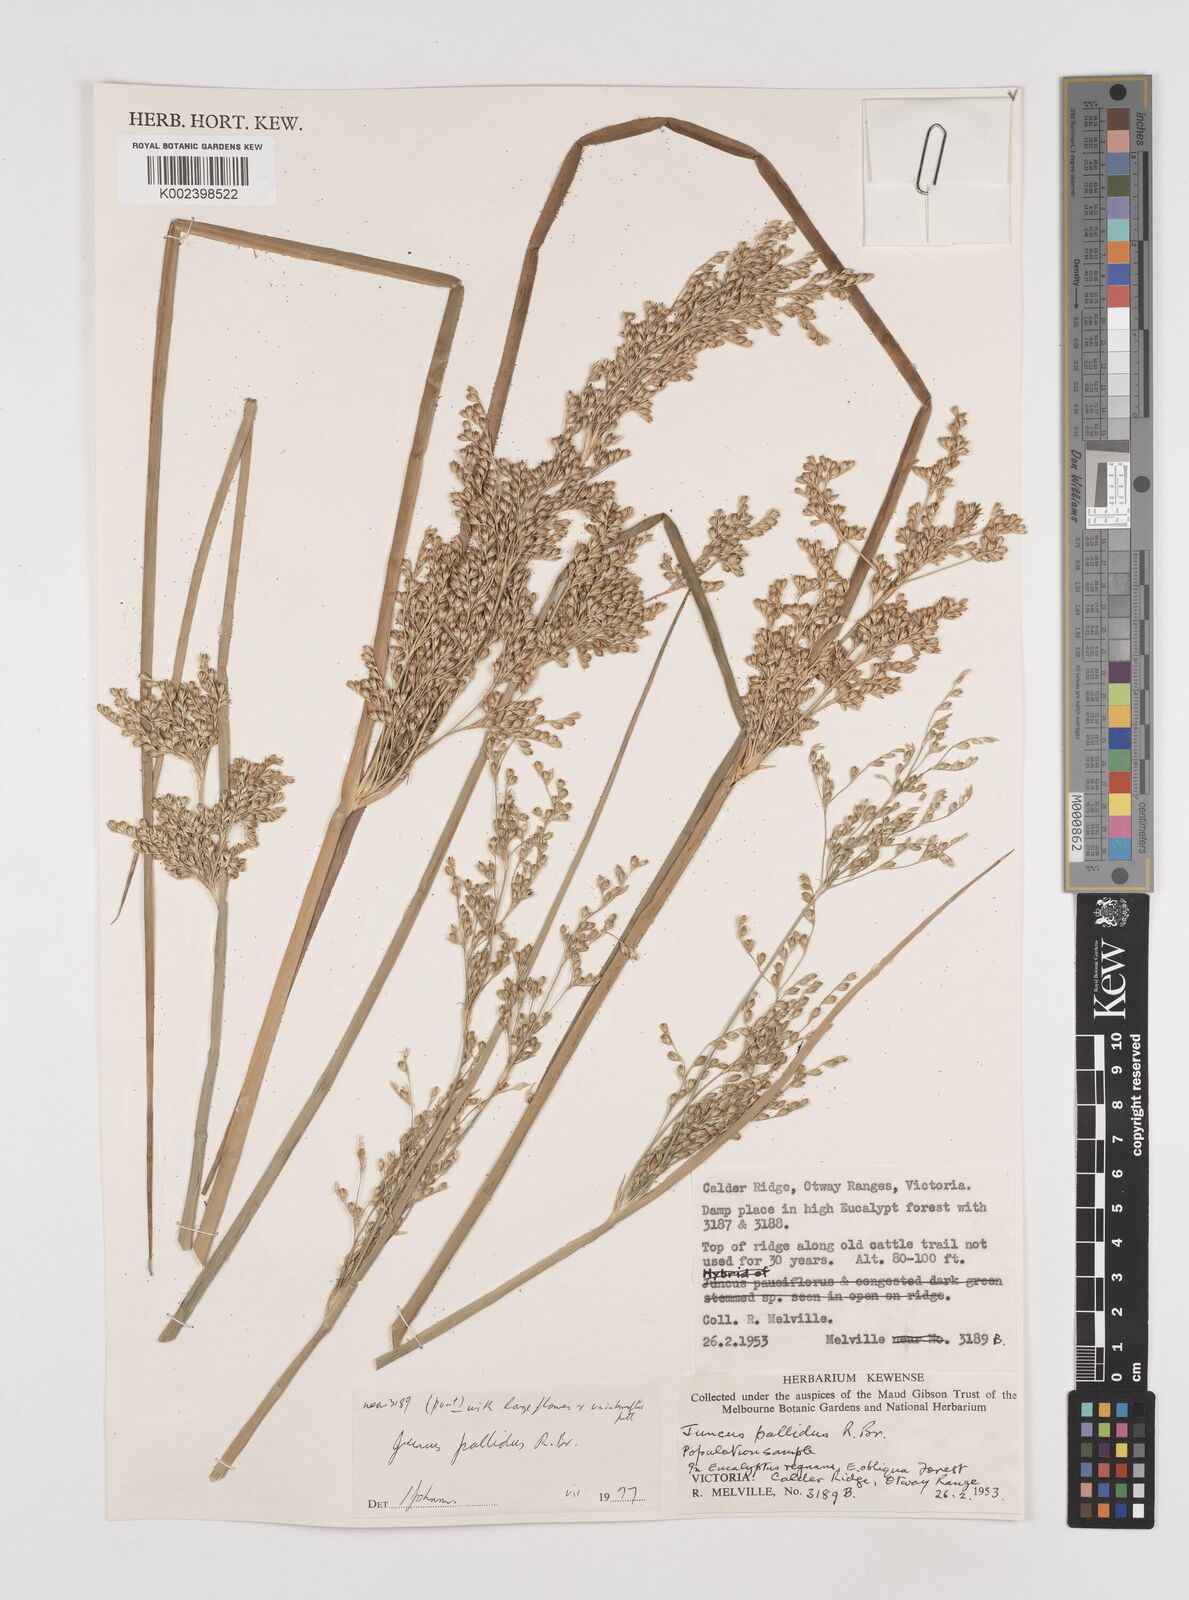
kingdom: Plantae
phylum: Tracheophyta
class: Liliopsida
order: Poales
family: Juncaceae
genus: Juncus
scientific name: Juncus pallidus
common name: Great soft-rush
